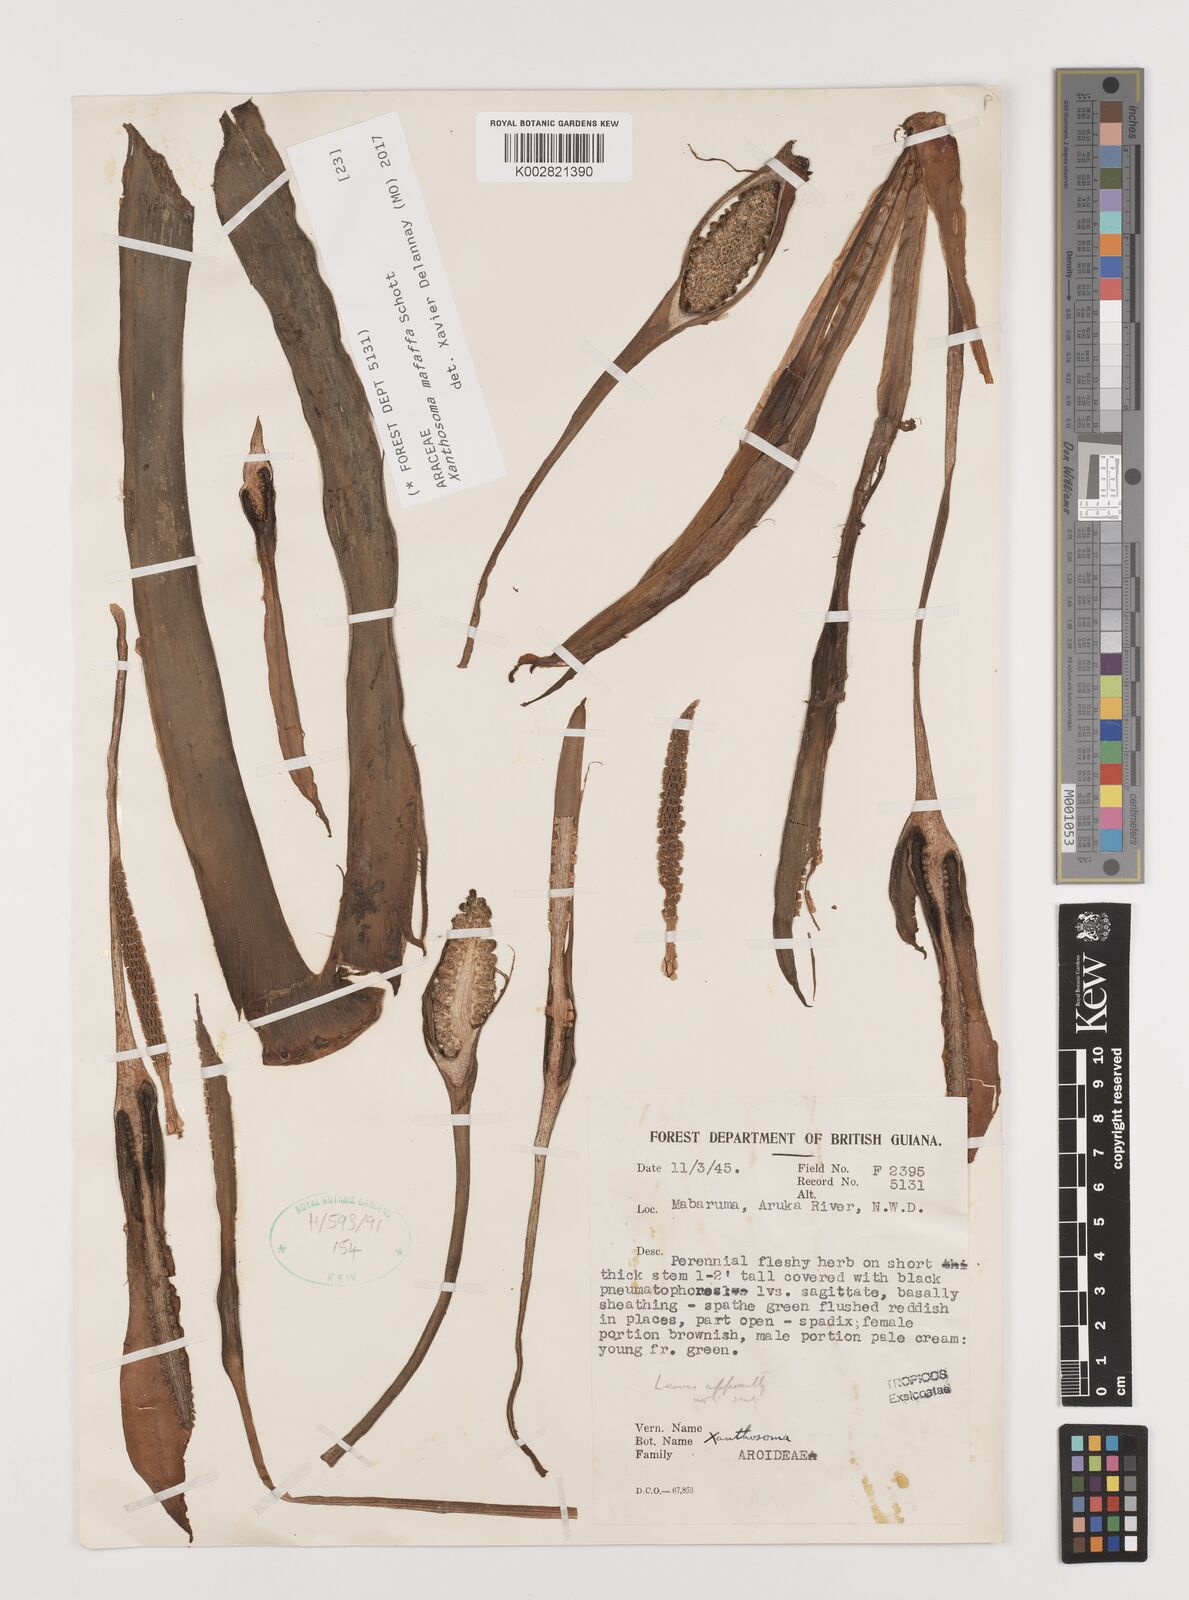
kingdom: Plantae
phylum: Tracheophyta
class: Liliopsida
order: Alismatales
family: Araceae
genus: Xanthosoma
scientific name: Xanthosoma sagittifolium
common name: Arrowleaf elephant's ear
